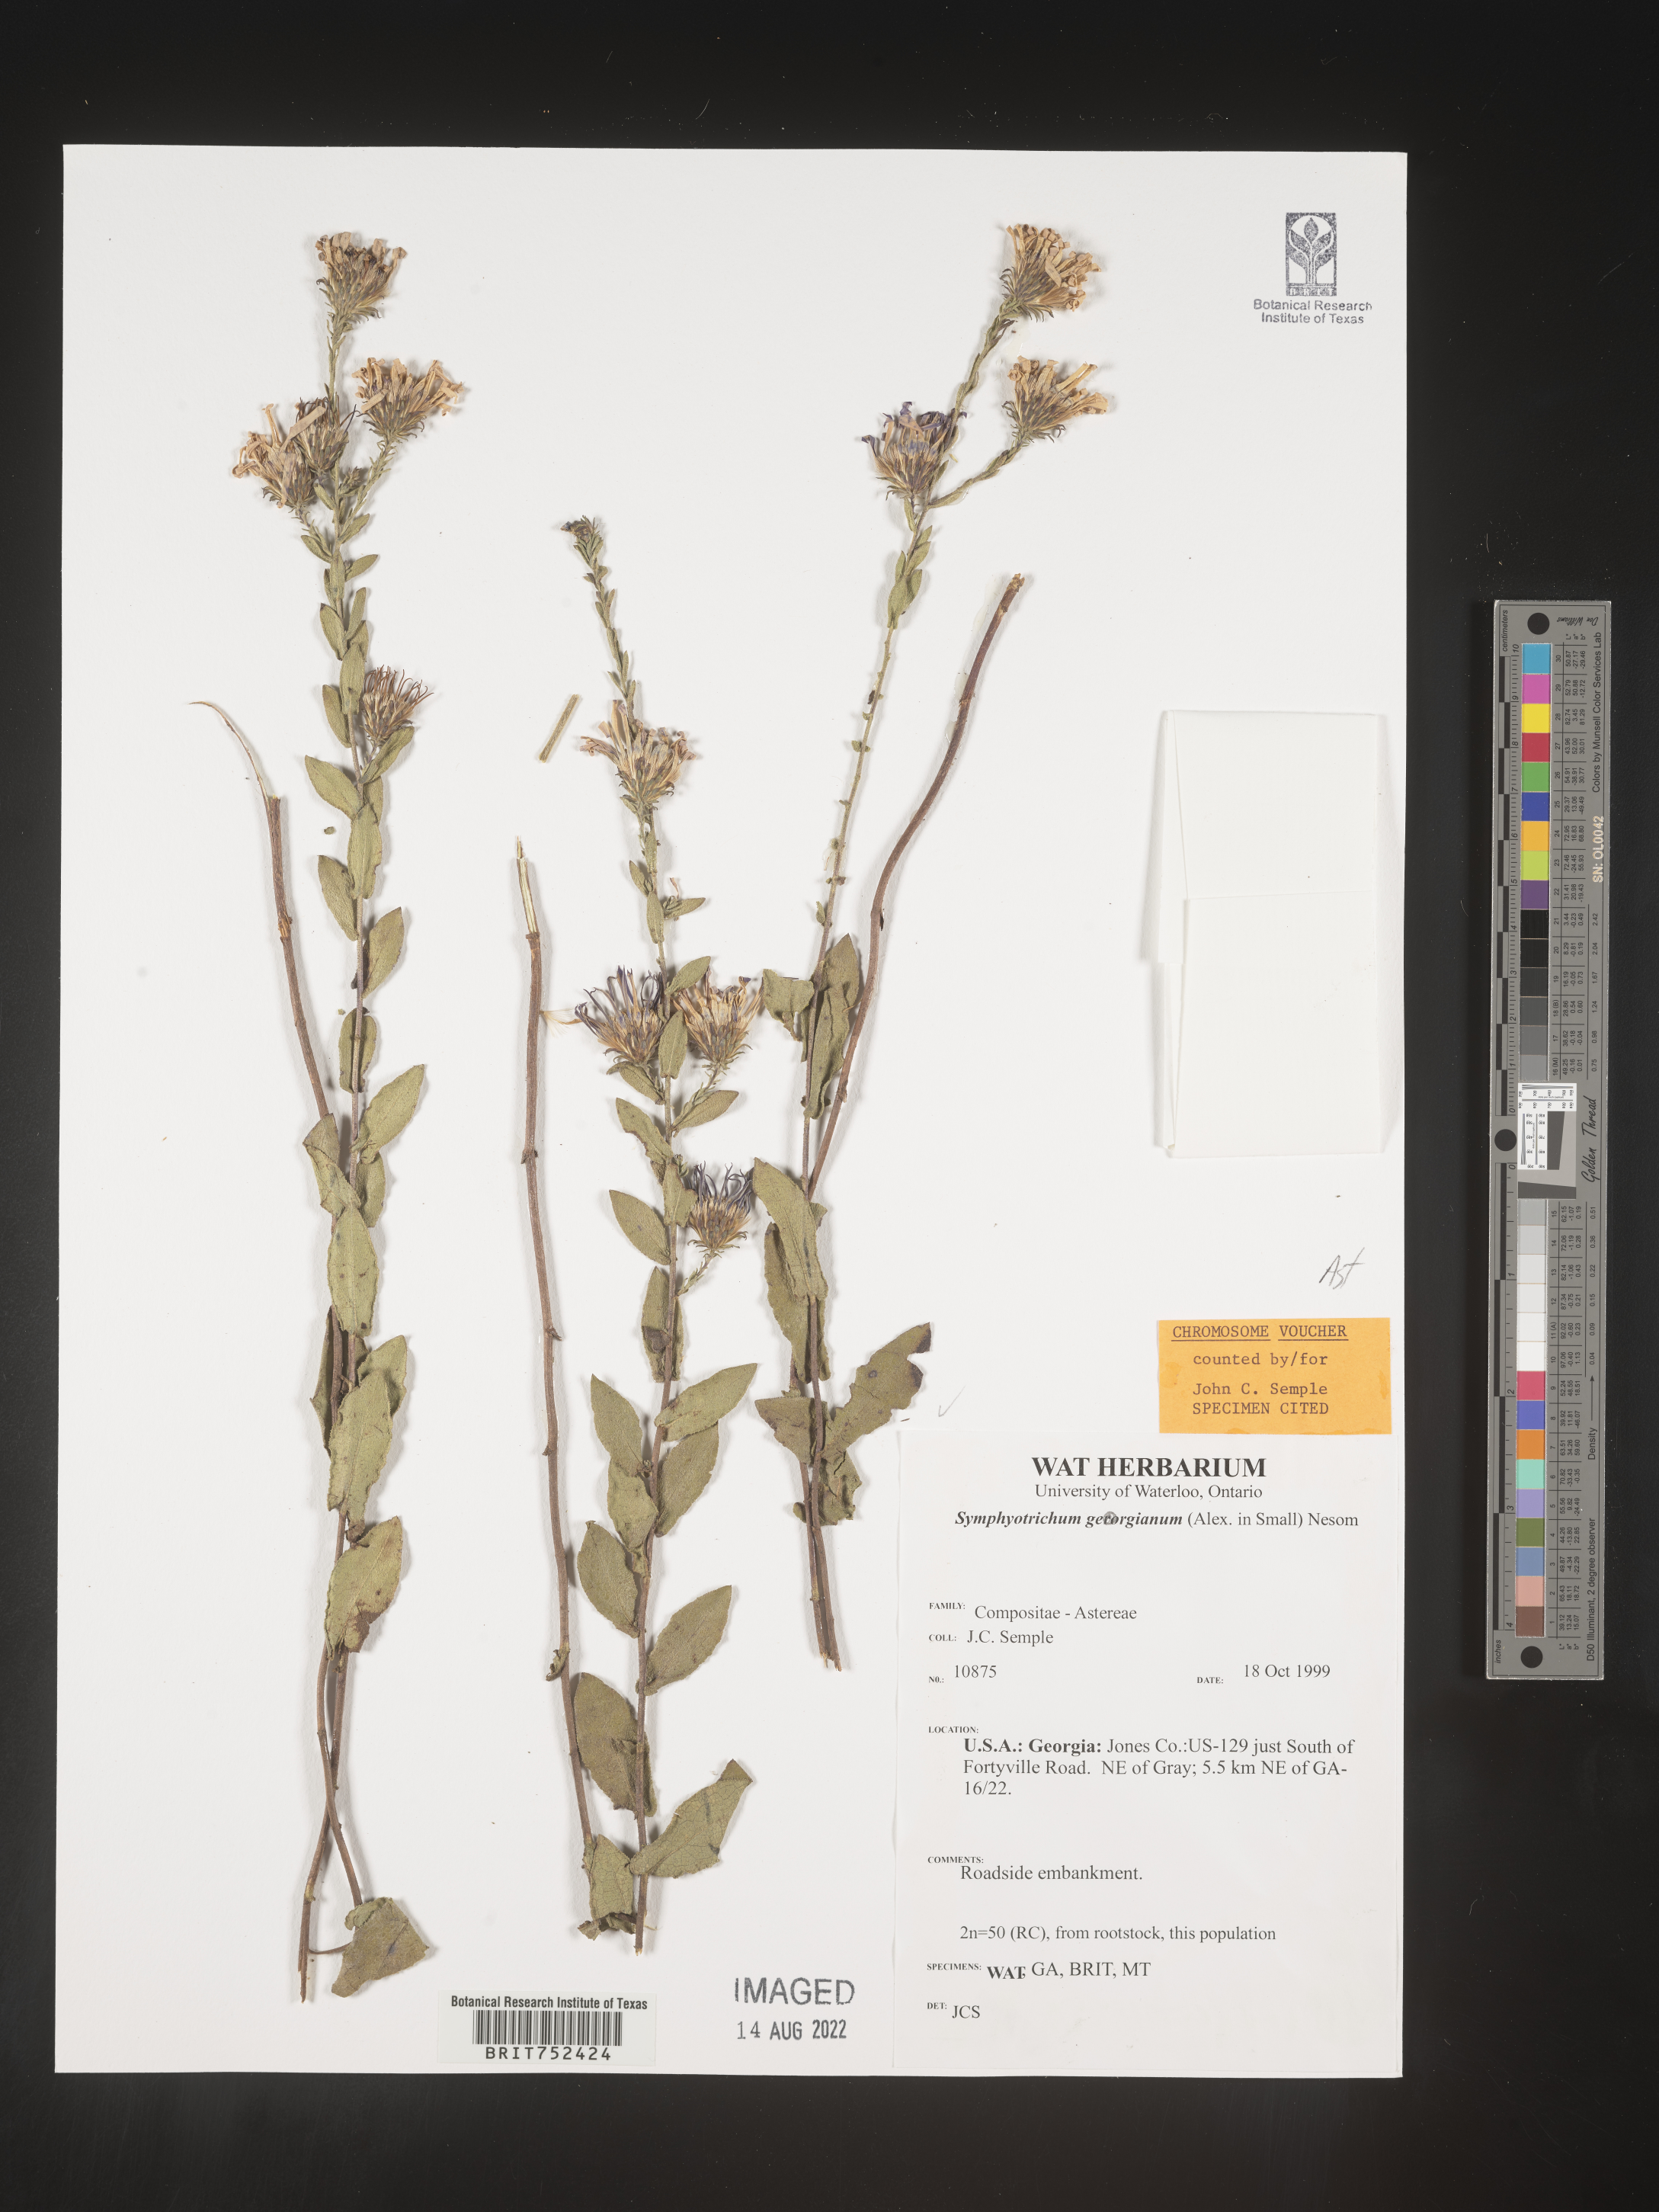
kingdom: Plantae
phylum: Tracheophyta
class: Magnoliopsida
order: Asterales
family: Asteraceae
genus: Symphyotrichum
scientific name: Symphyotrichum georgianum
